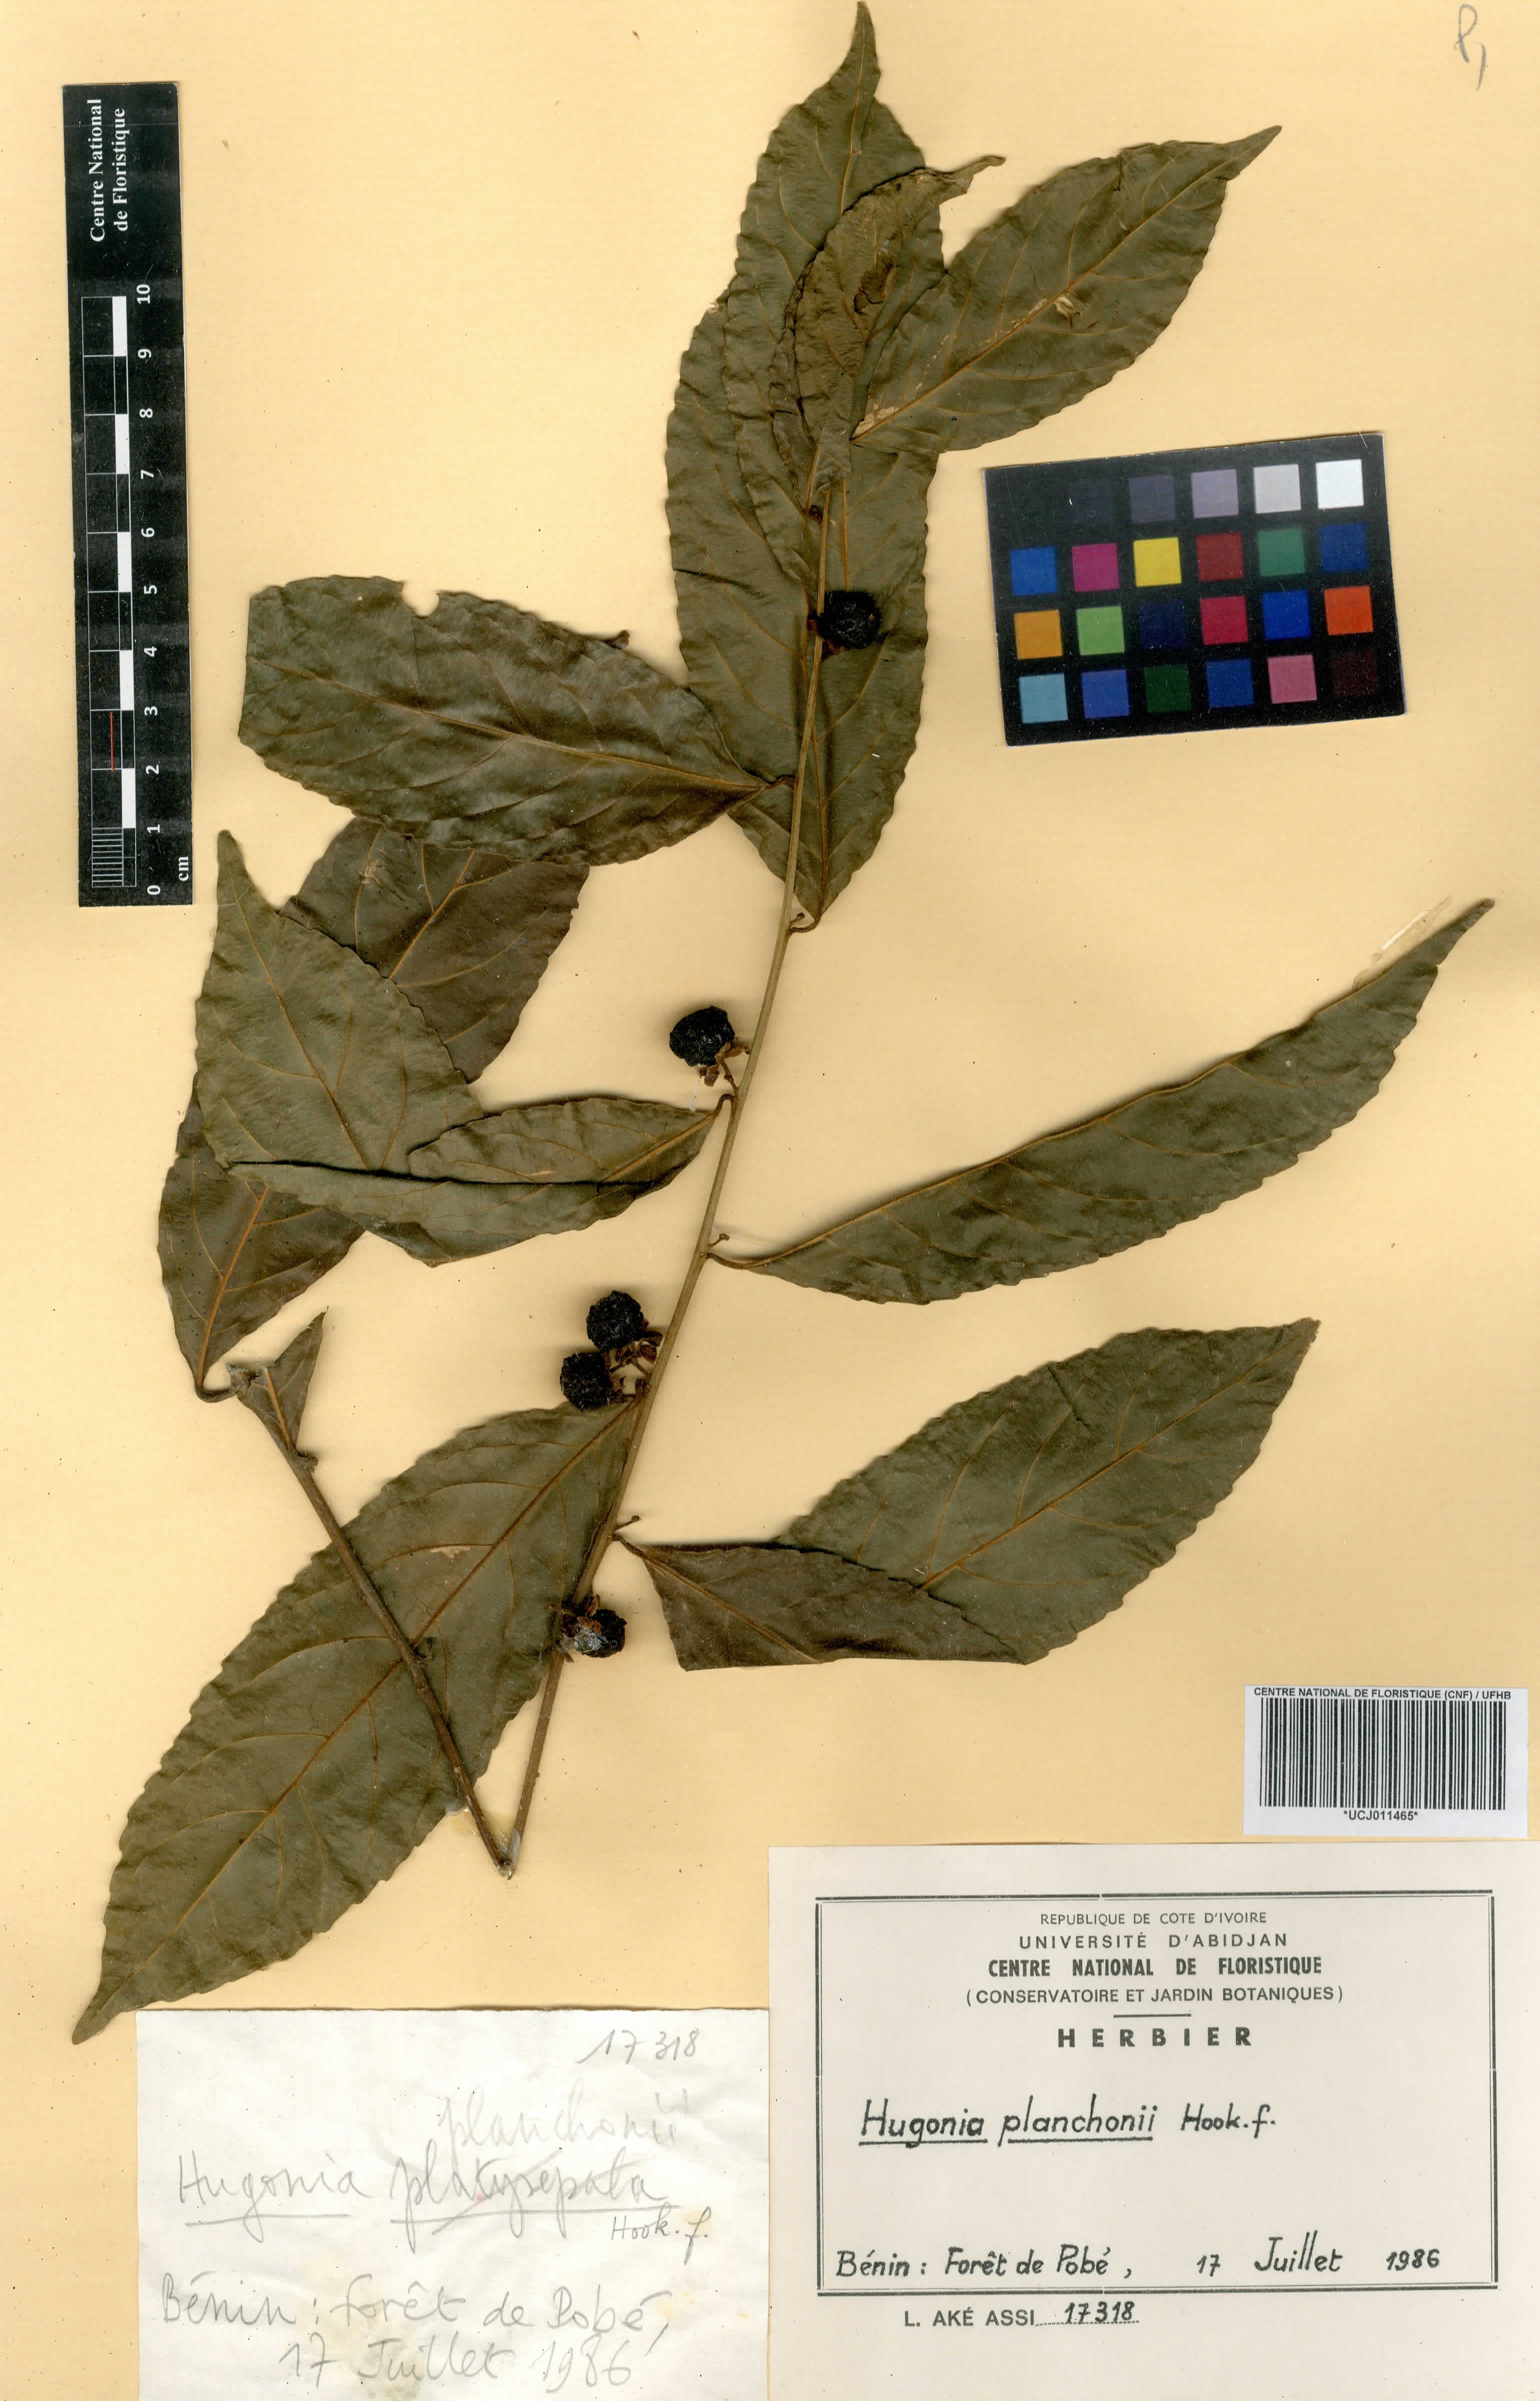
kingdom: Plantae
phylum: Tracheophyta
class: Magnoliopsida
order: Malpighiales
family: Linaceae
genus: Hugonia
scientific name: Hugonia planchonii
